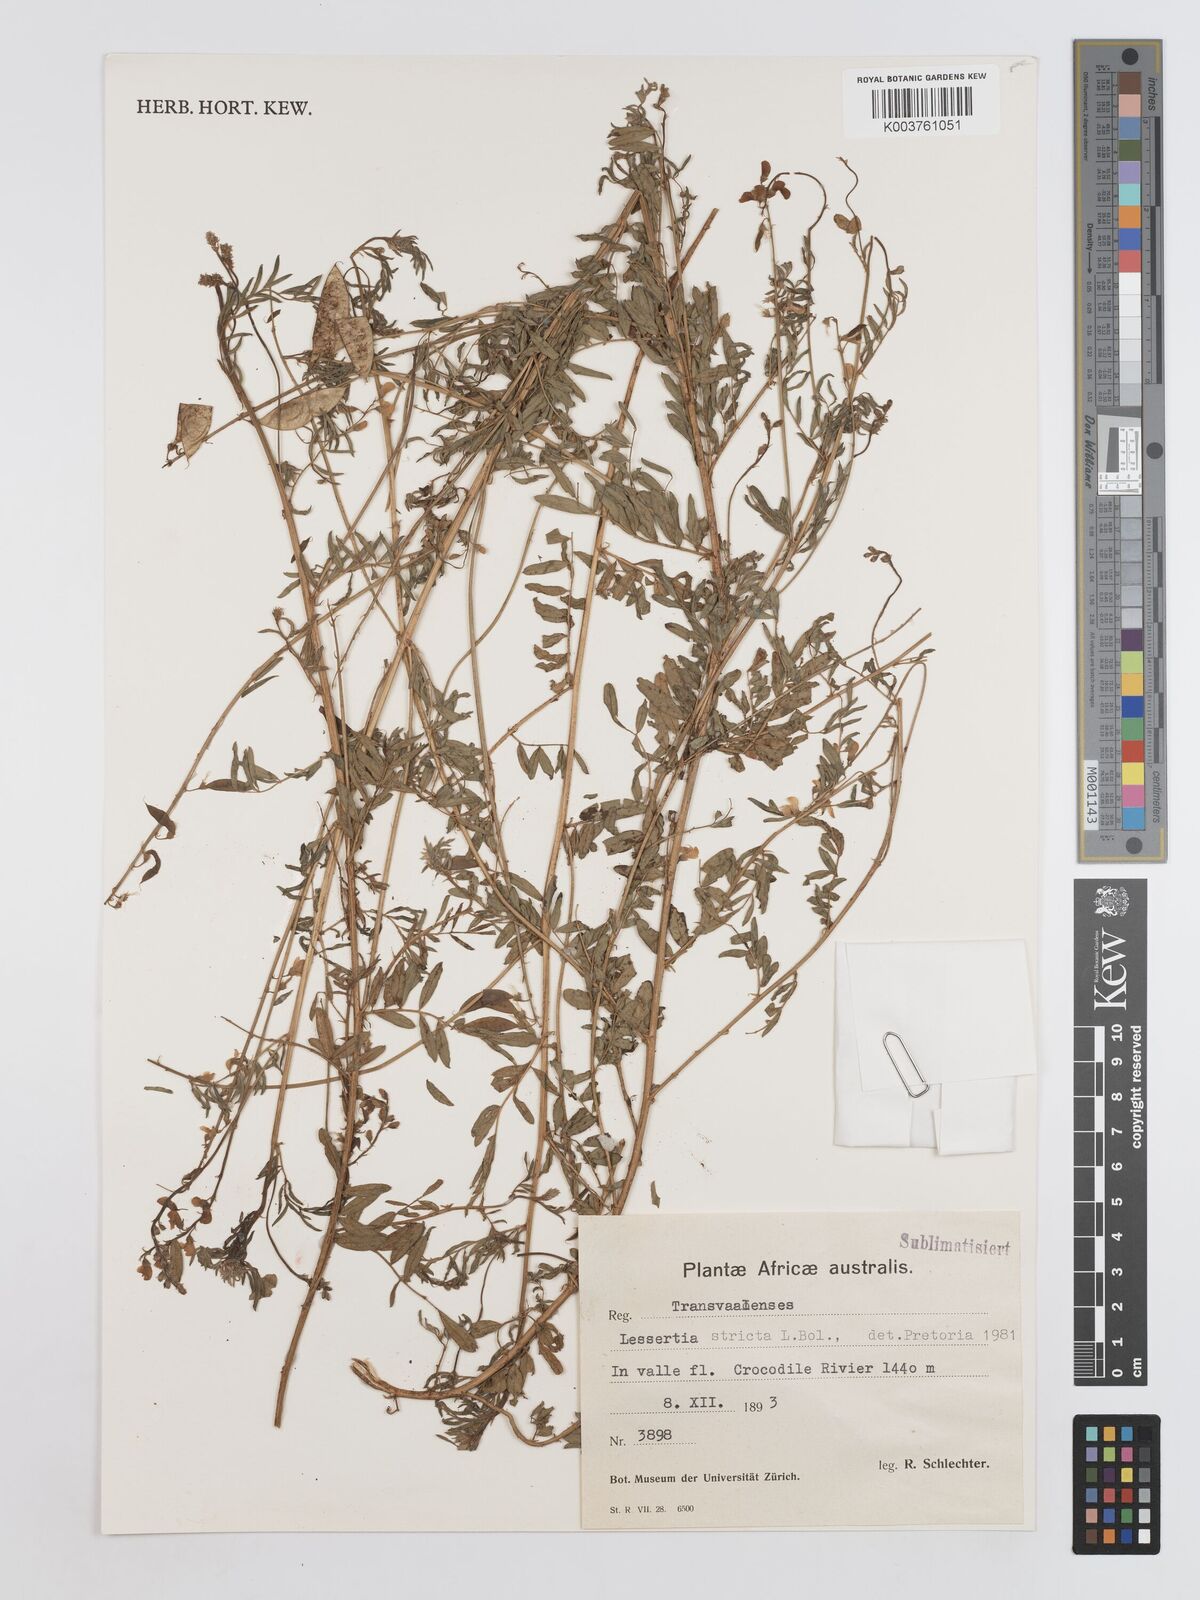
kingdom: Plantae
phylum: Tracheophyta
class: Magnoliopsida
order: Fabales
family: Fabaceae
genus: Lessertia
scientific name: Lessertia stricta
